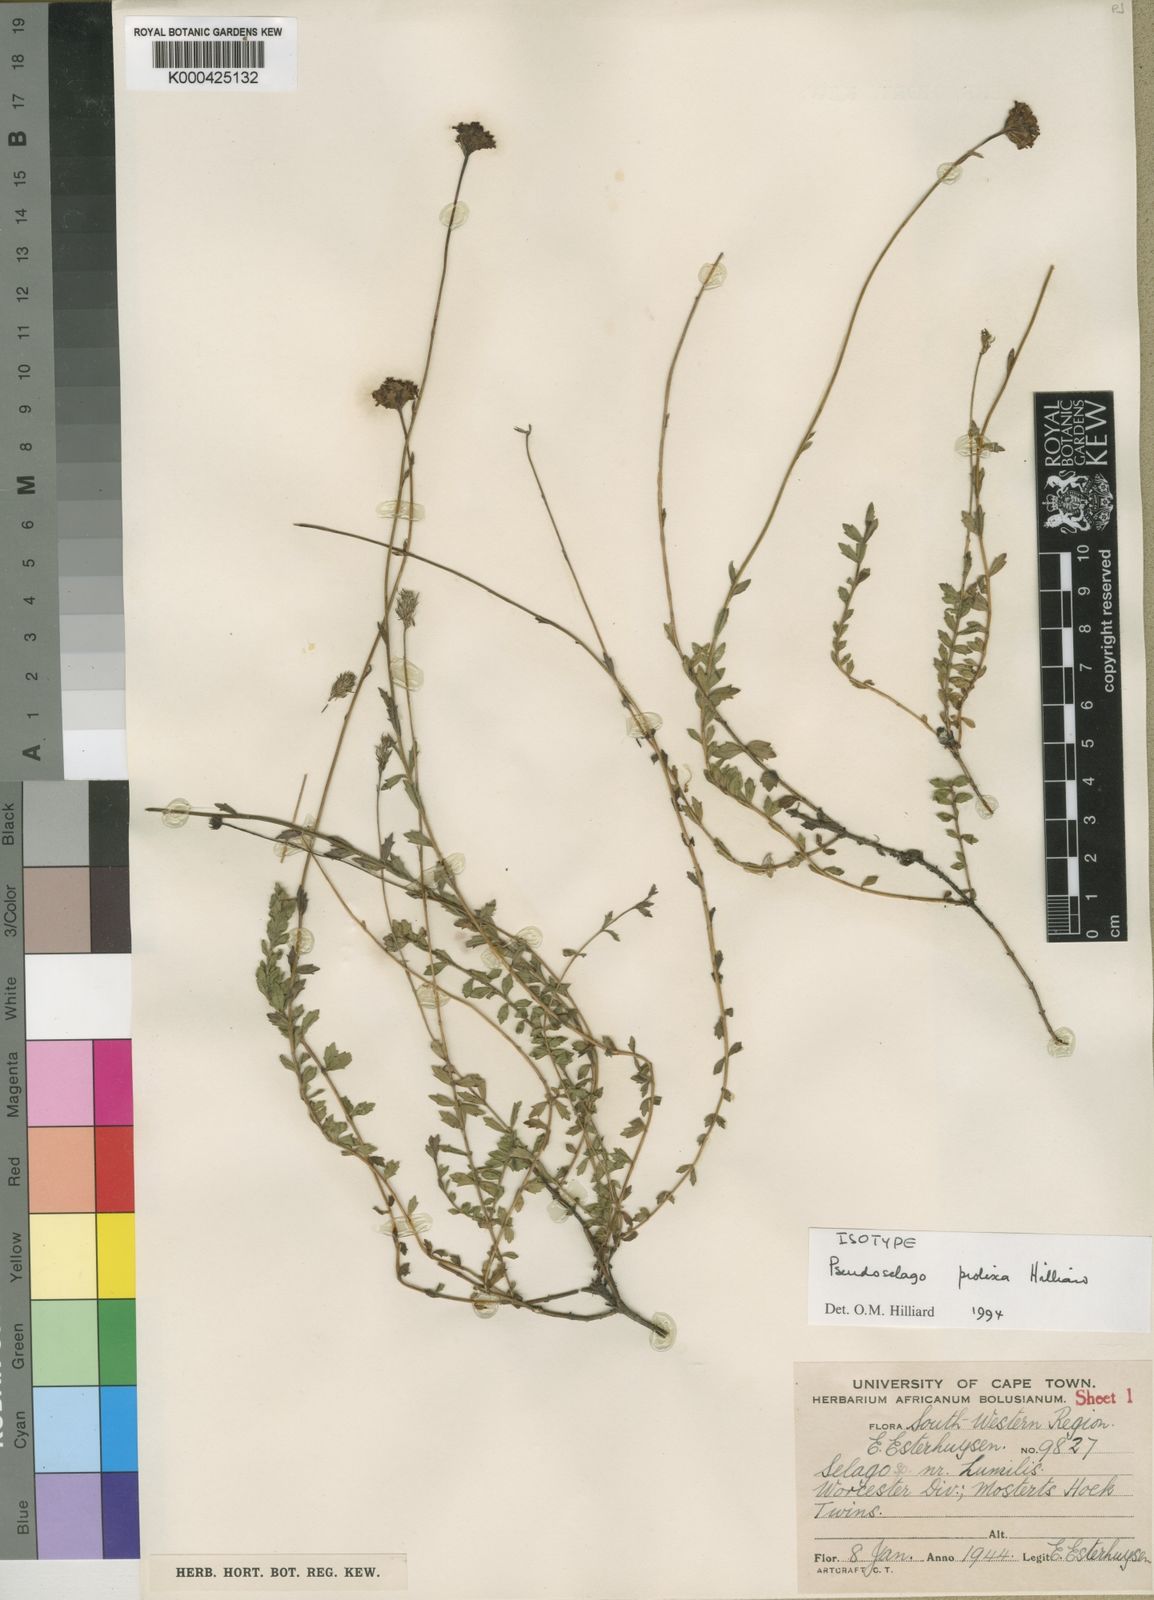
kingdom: Plantae
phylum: Tracheophyta
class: Magnoliopsida
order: Lamiales
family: Scrophulariaceae
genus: Pseudoselago
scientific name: Pseudoselago prolixa
